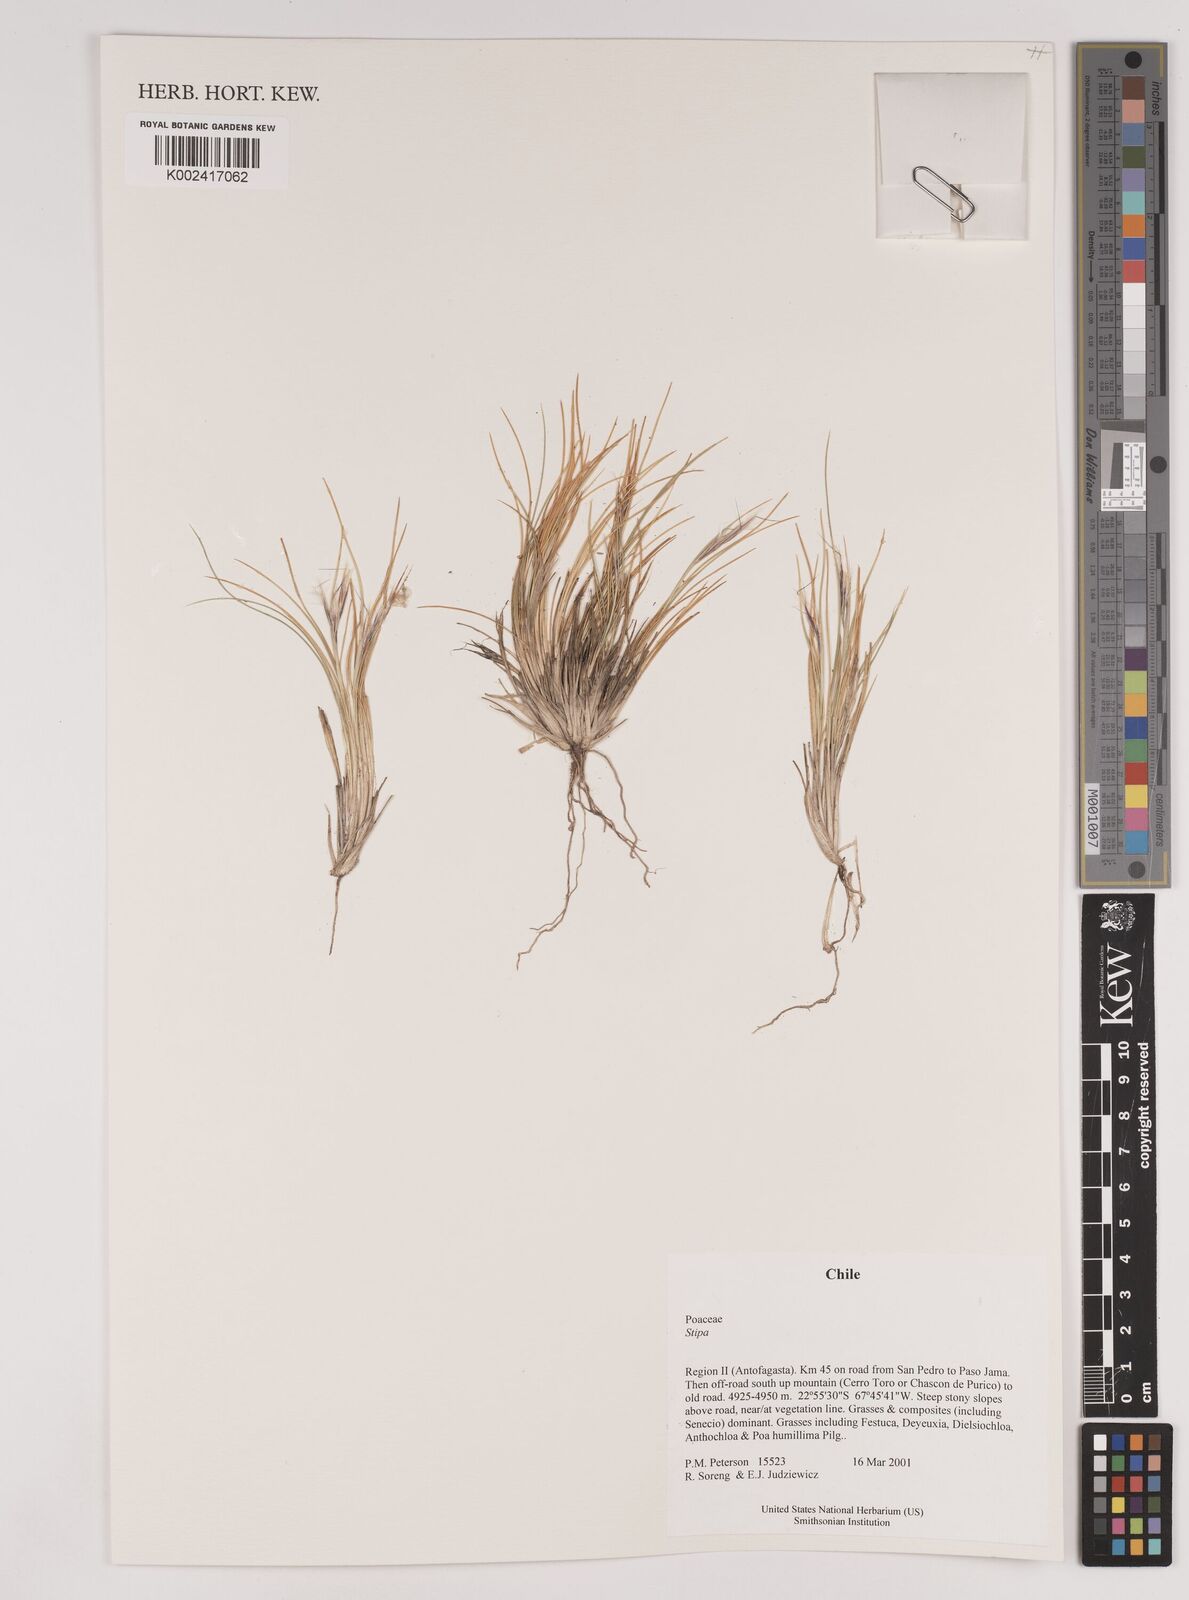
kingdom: Plantae
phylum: Tracheophyta
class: Liliopsida
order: Poales
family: Poaceae
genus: Pappostipa
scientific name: Pappostipa atacamensis
